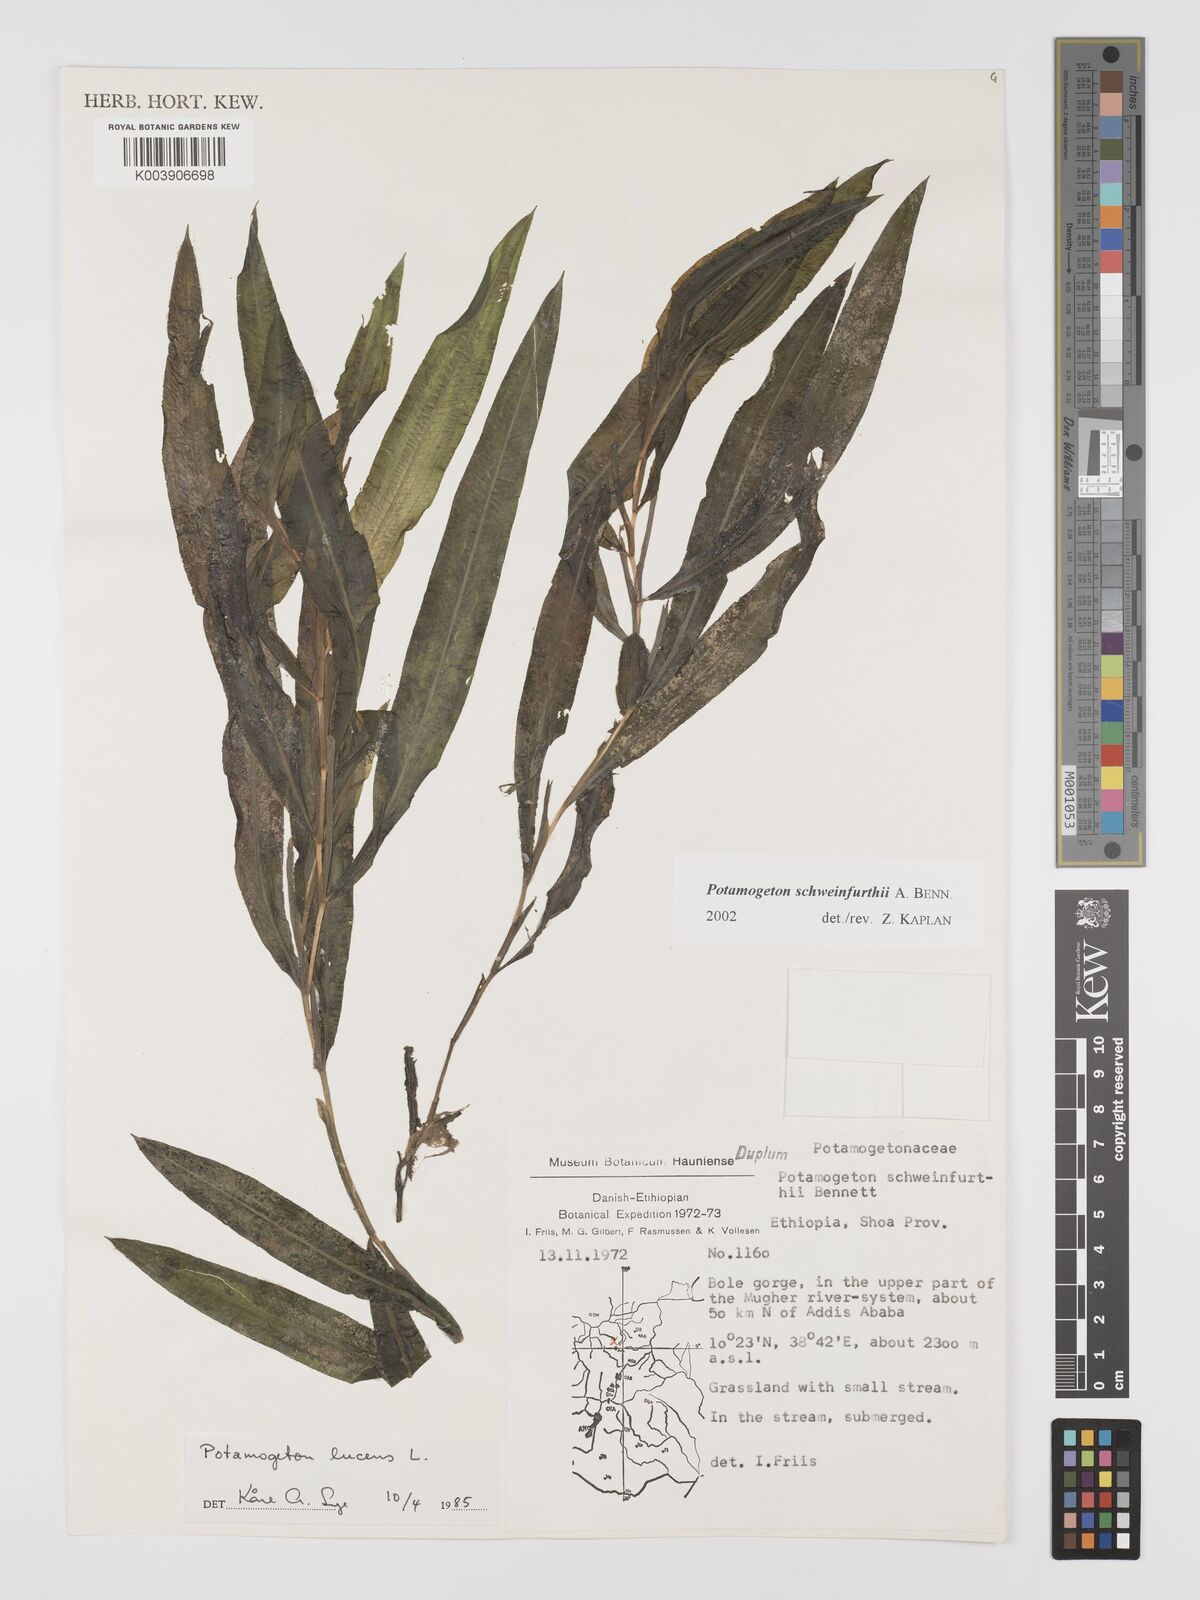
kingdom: Plantae
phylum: Tracheophyta
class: Liliopsida
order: Alismatales
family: Potamogetonaceae
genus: Potamogeton
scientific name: Potamogeton schweinfurthii
